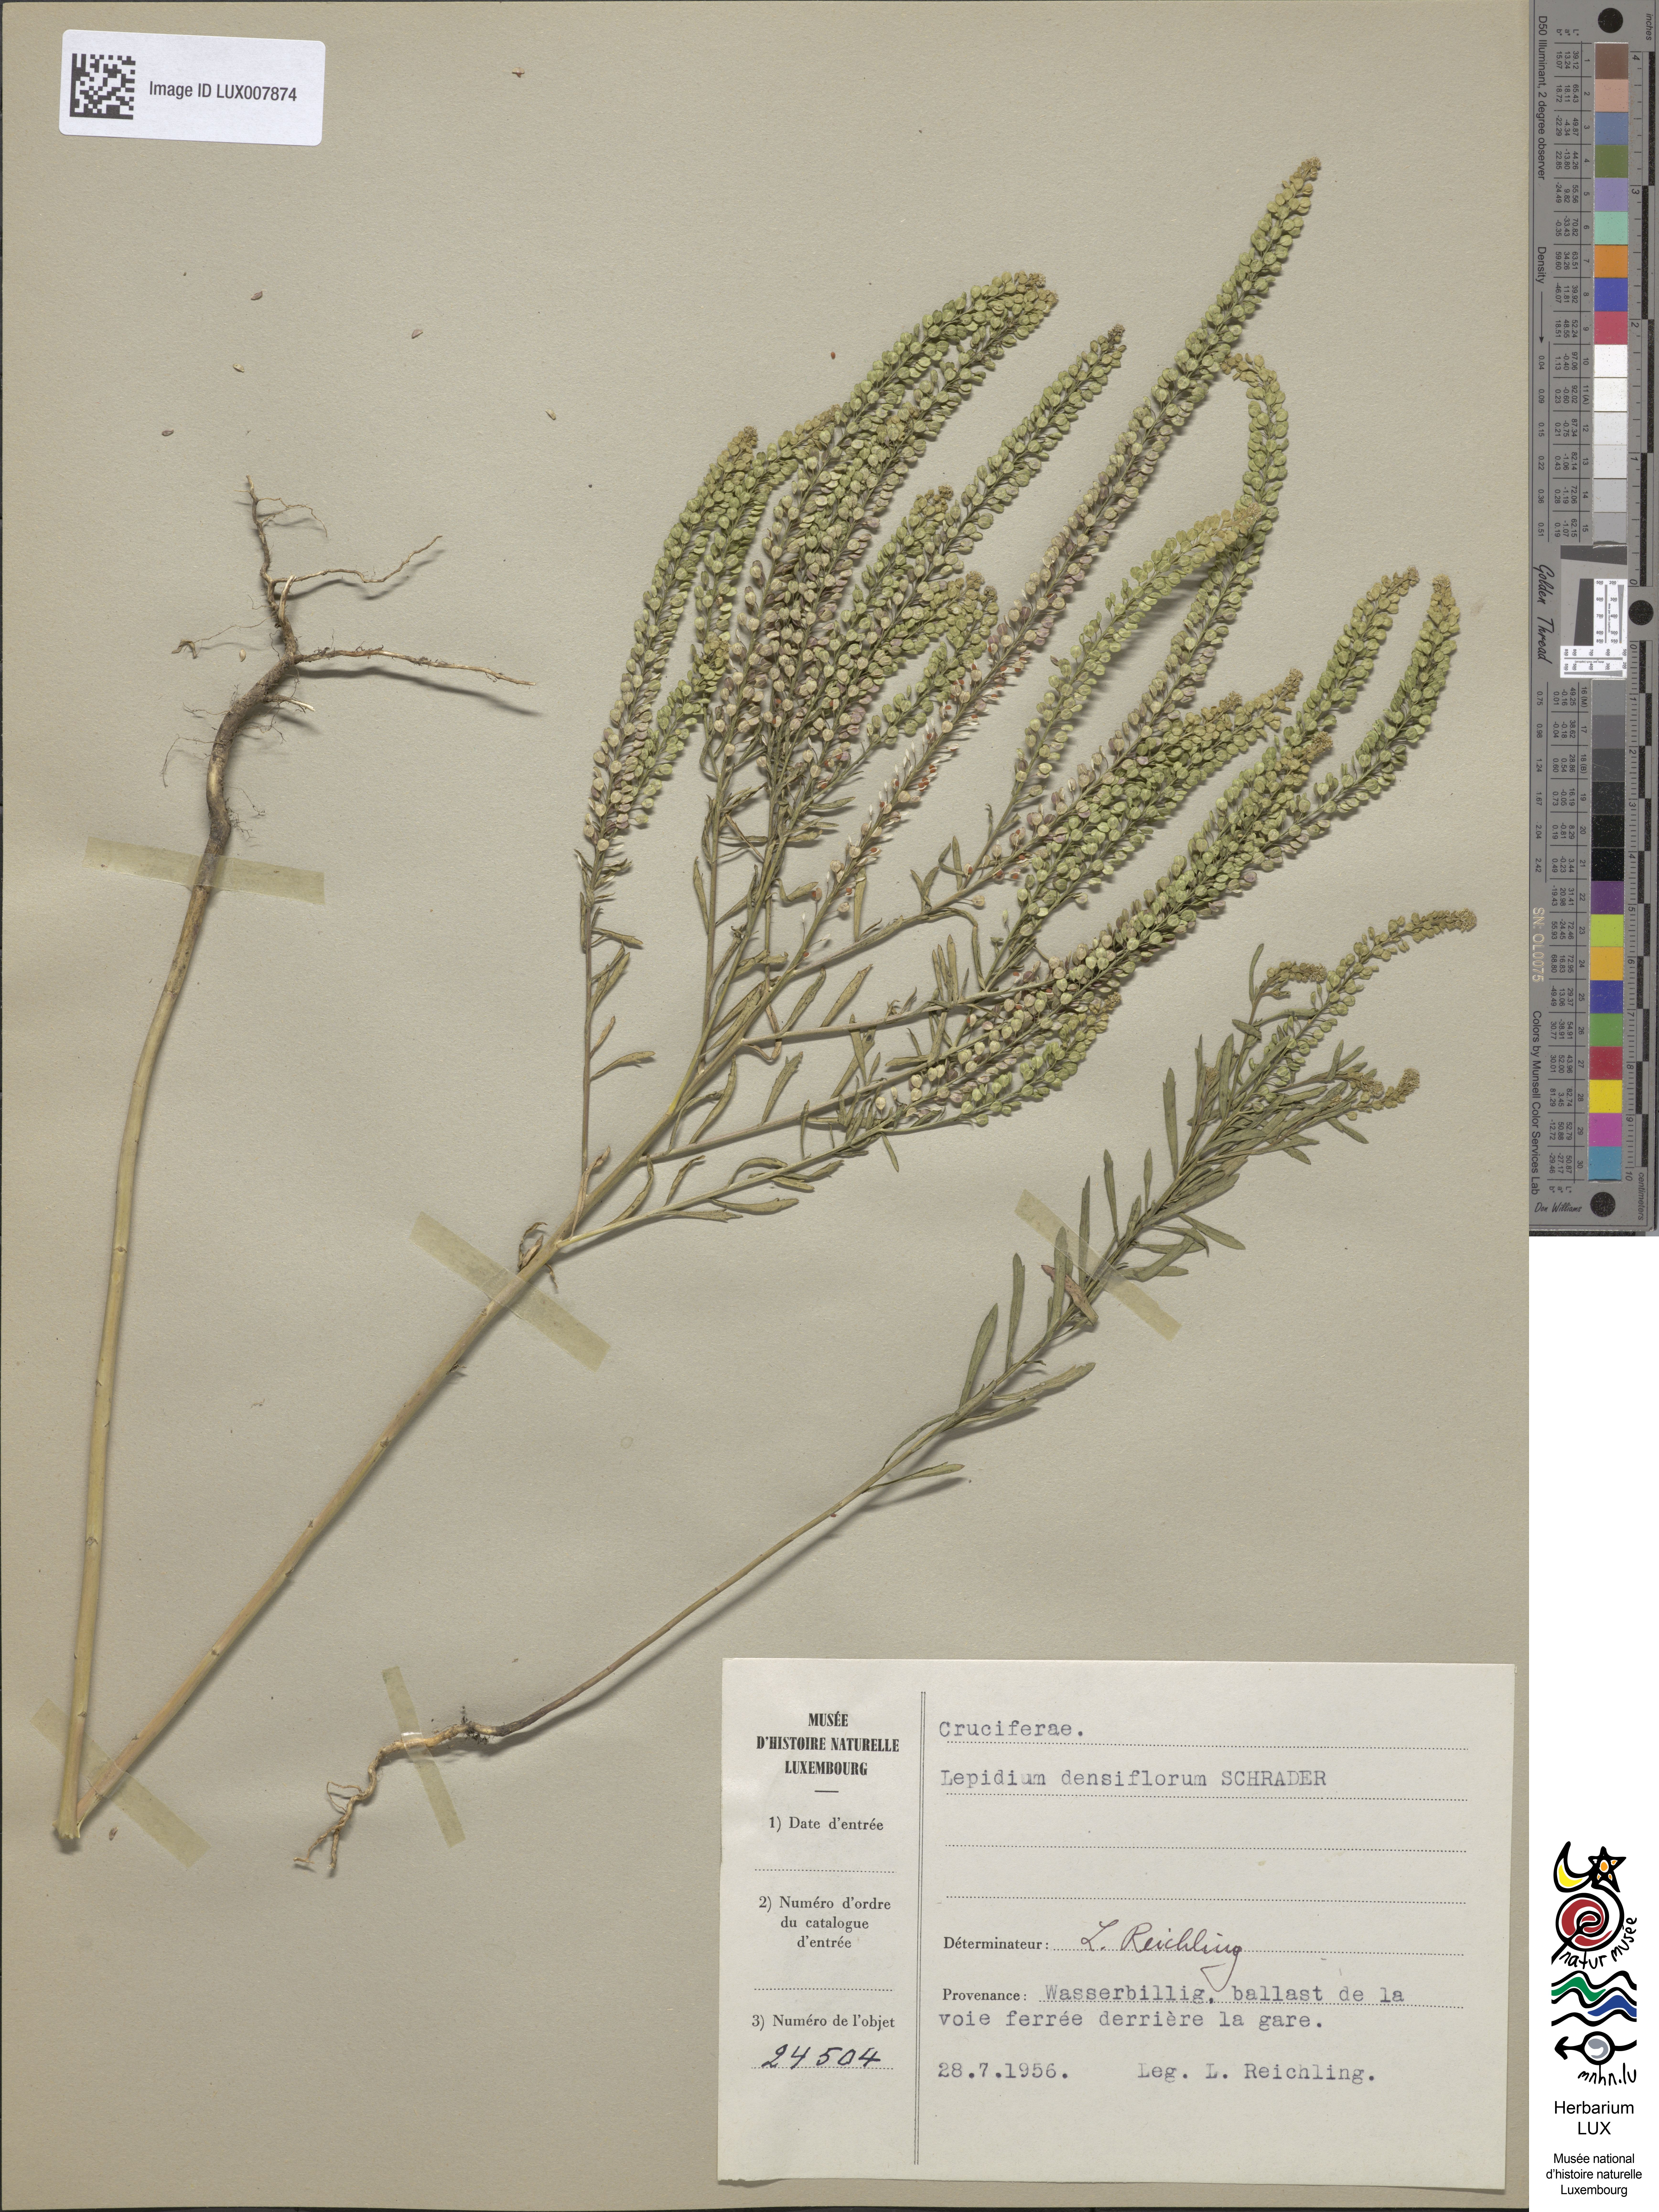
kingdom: Plantae
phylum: Tracheophyta
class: Magnoliopsida
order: Brassicales
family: Brassicaceae
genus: Lepidium
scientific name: Lepidium densiflorum
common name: Miner's pepperwort
